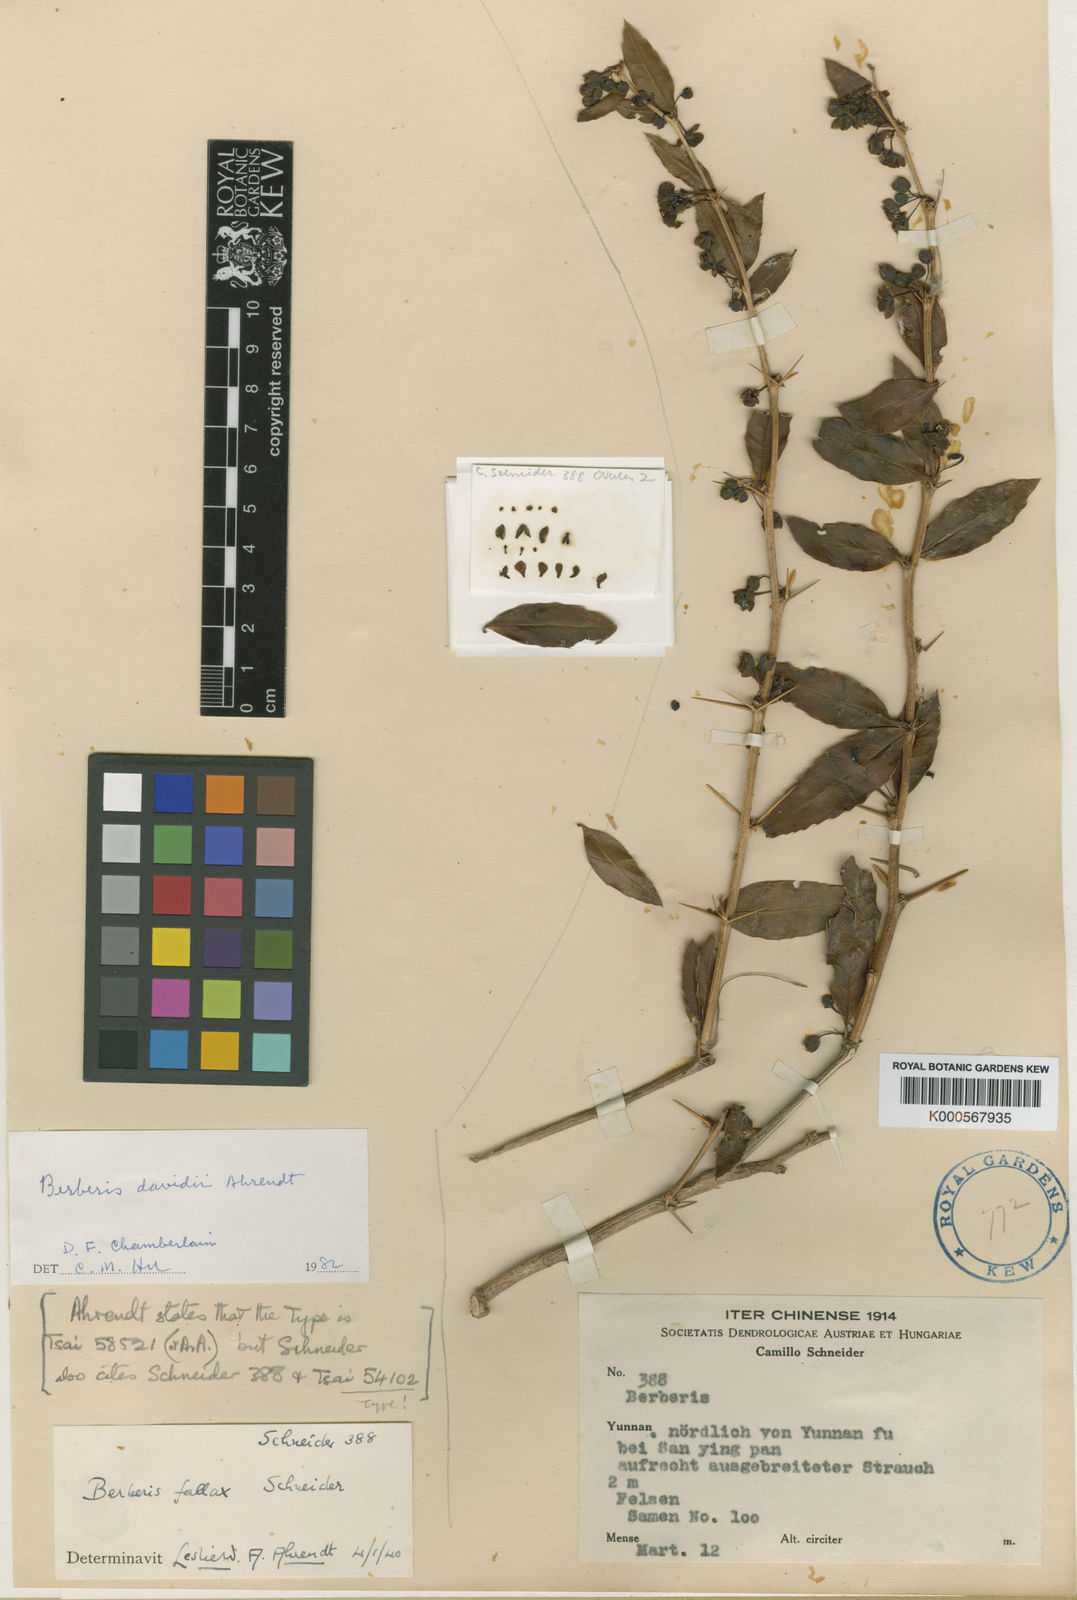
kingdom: Plantae
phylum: Tracheophyta
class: Magnoliopsida
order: Ranunculales
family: Berberidaceae
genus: Berberis
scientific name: Berberis fallax
